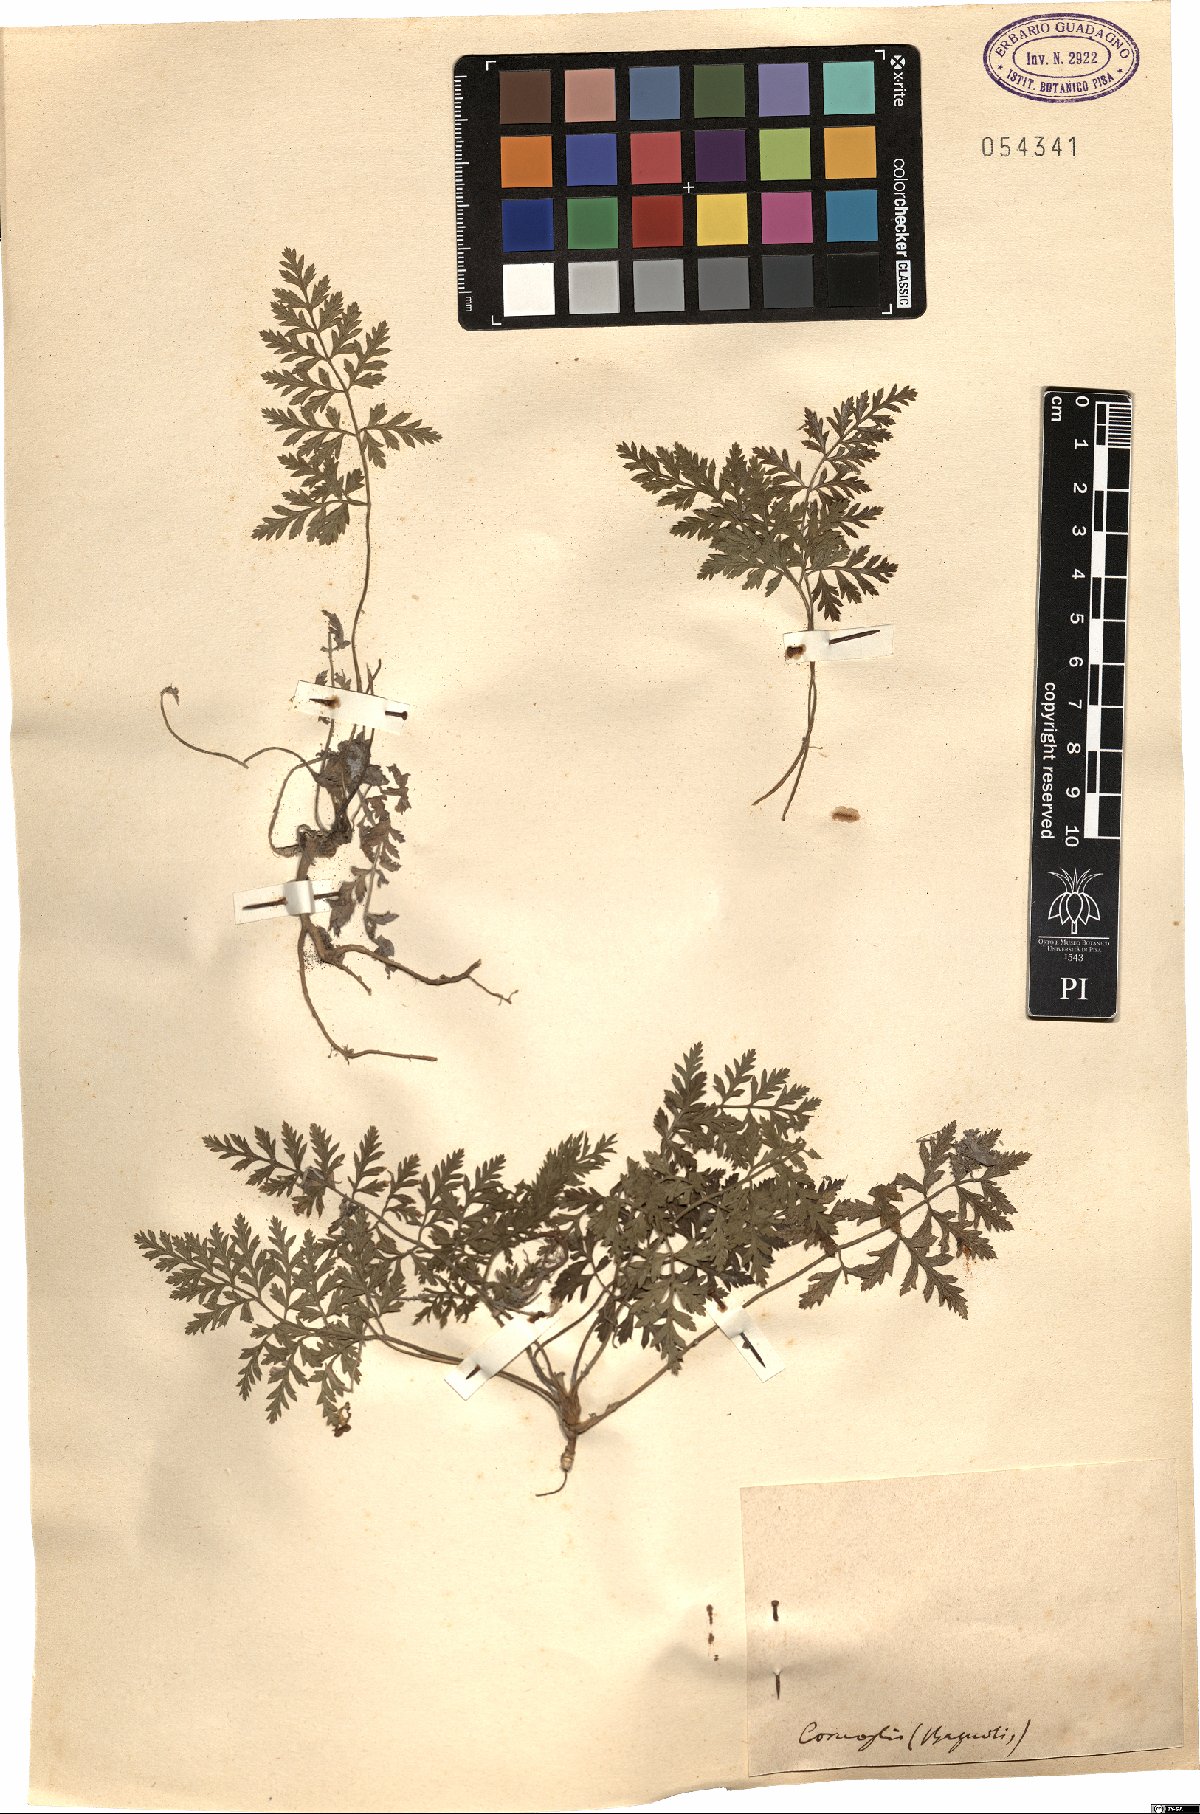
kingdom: Plantae
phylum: Tracheophyta
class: Magnoliopsida
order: Apiales
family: Apiaceae
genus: Daucus
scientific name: Daucus
